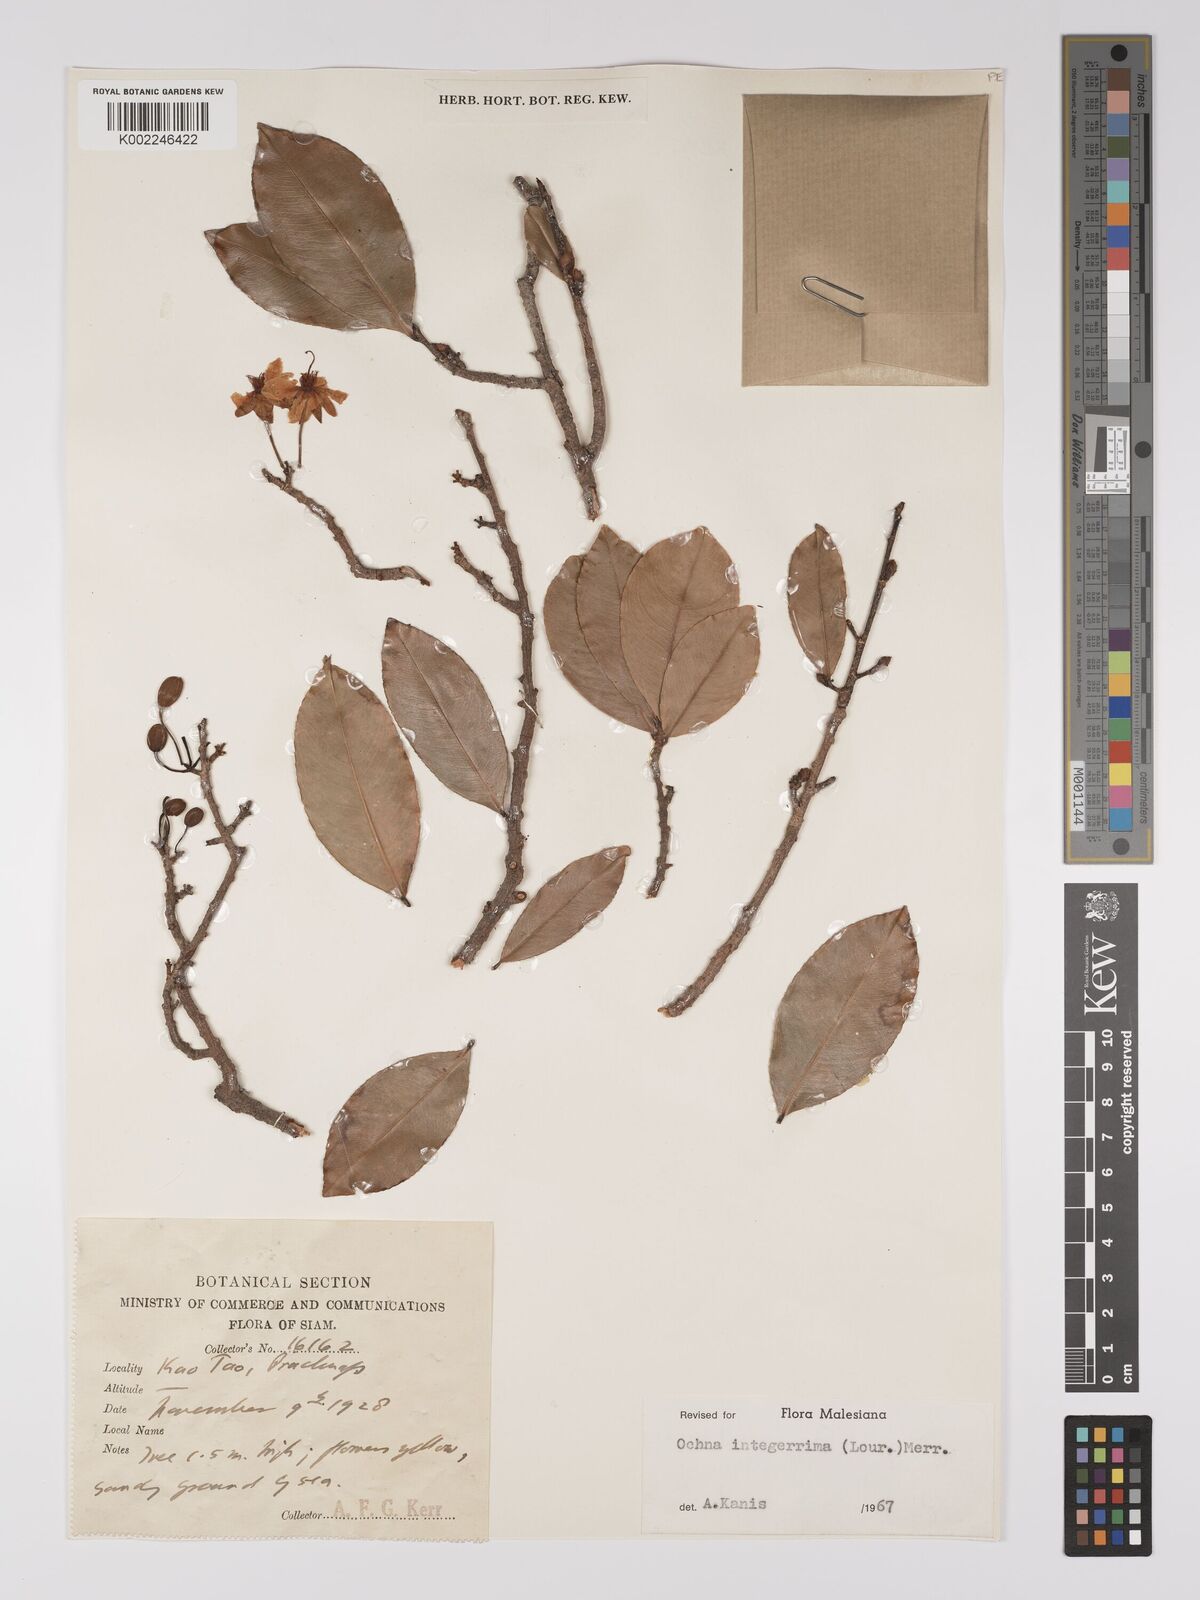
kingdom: Plantae
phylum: Tracheophyta
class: Magnoliopsida
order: Malpighiales
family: Ochnaceae
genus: Ochna
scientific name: Ochna integerrima
